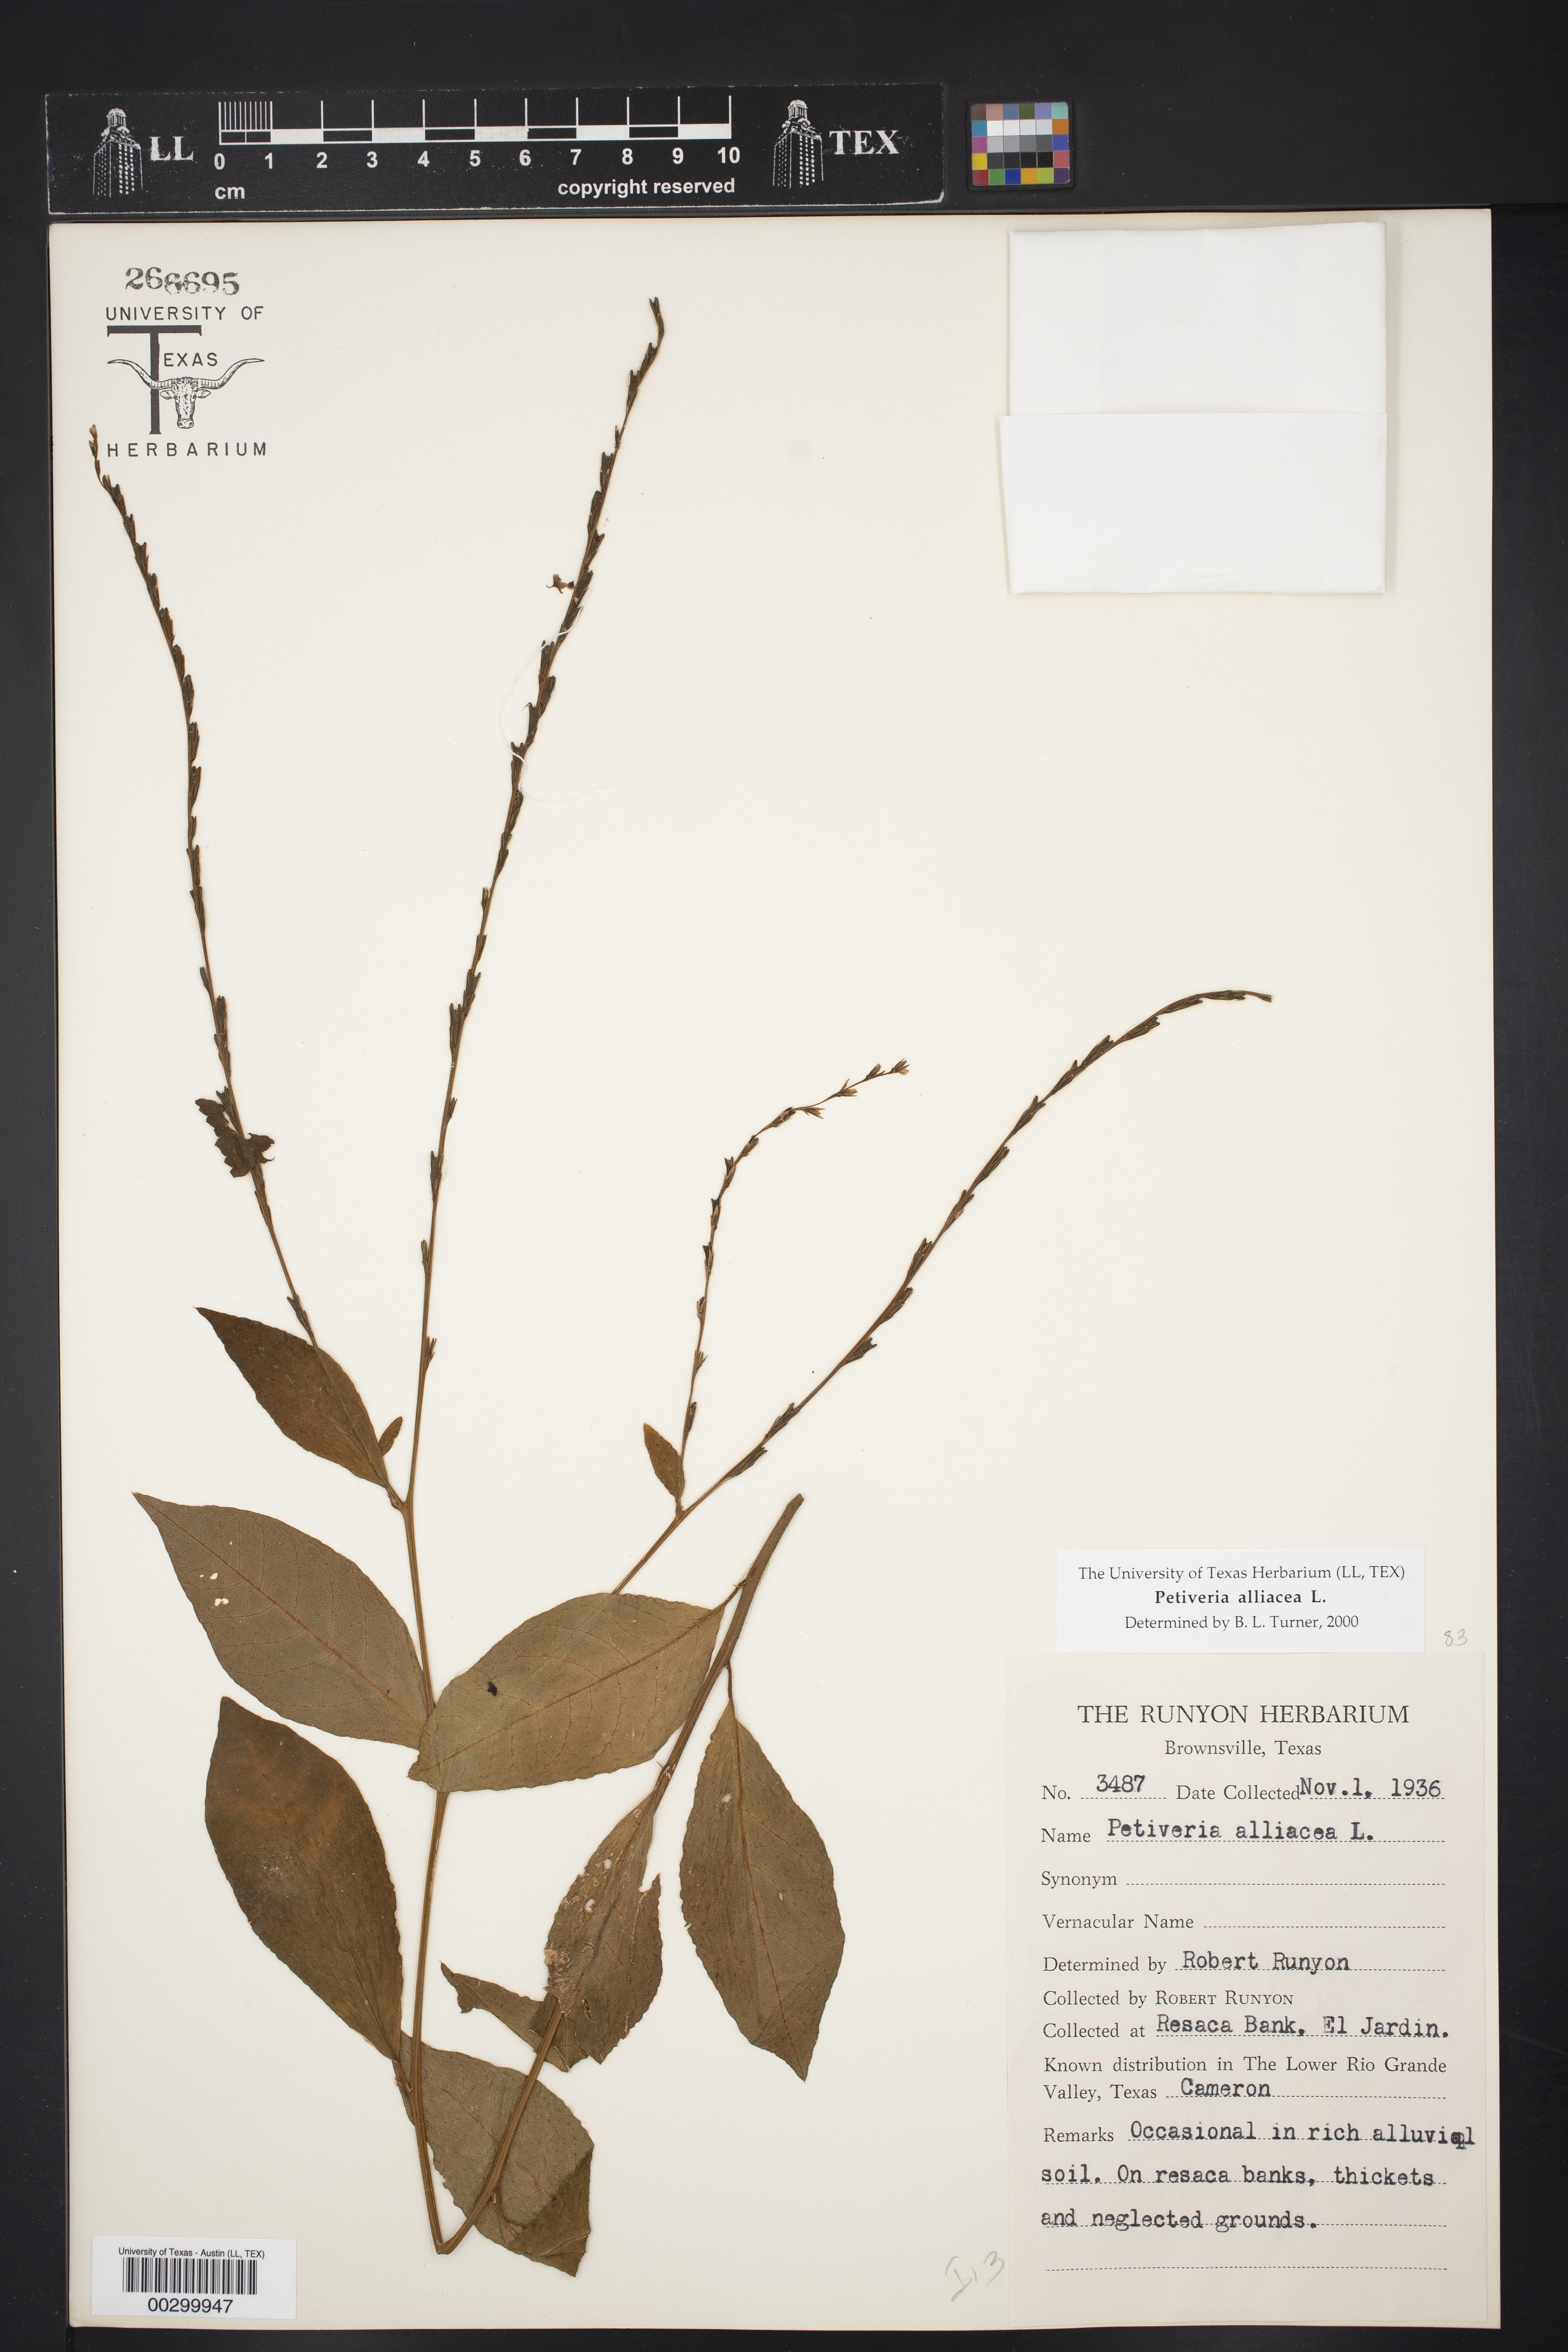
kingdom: Plantae
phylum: Tracheophyta
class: Magnoliopsida
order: Caryophyllales
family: Phytolaccaceae
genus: Petiveria
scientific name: Petiveria alliacea
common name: Garlicweed
